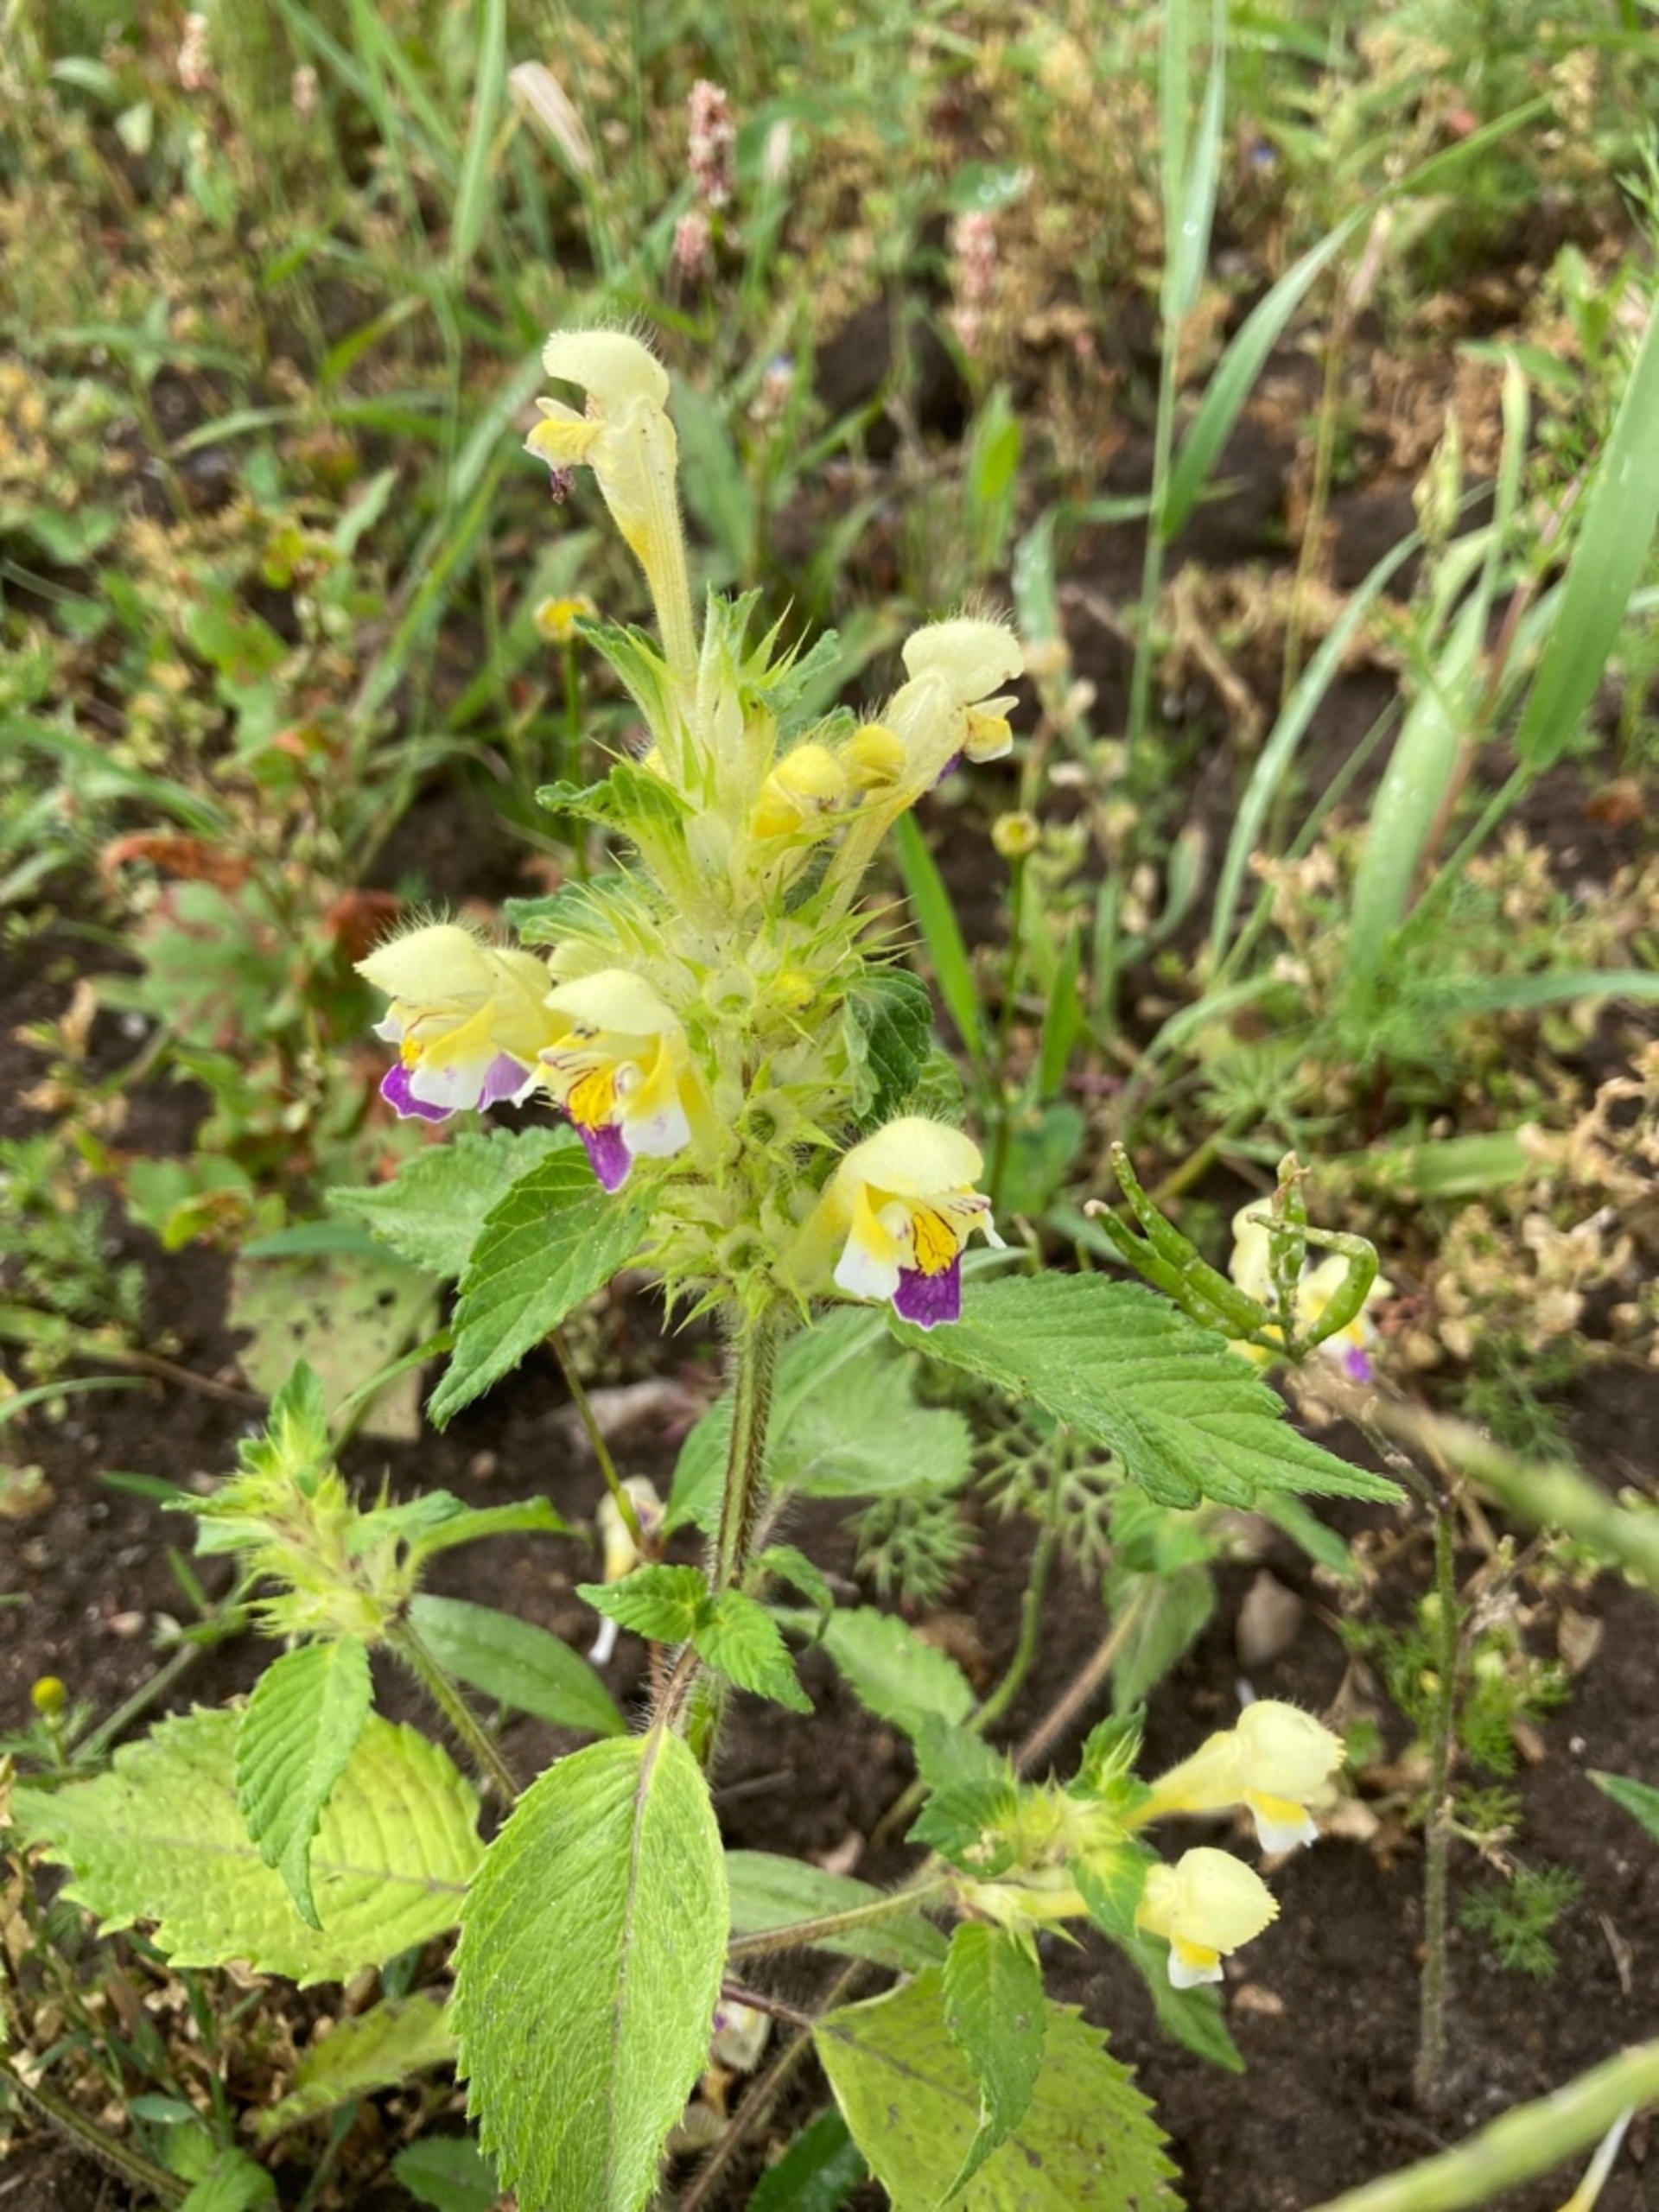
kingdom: Plantae
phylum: Tracheophyta
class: Magnoliopsida
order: Lamiales
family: Lamiaceae
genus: Galeopsis
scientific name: Galeopsis speciosa
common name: Hamp-hanekro
